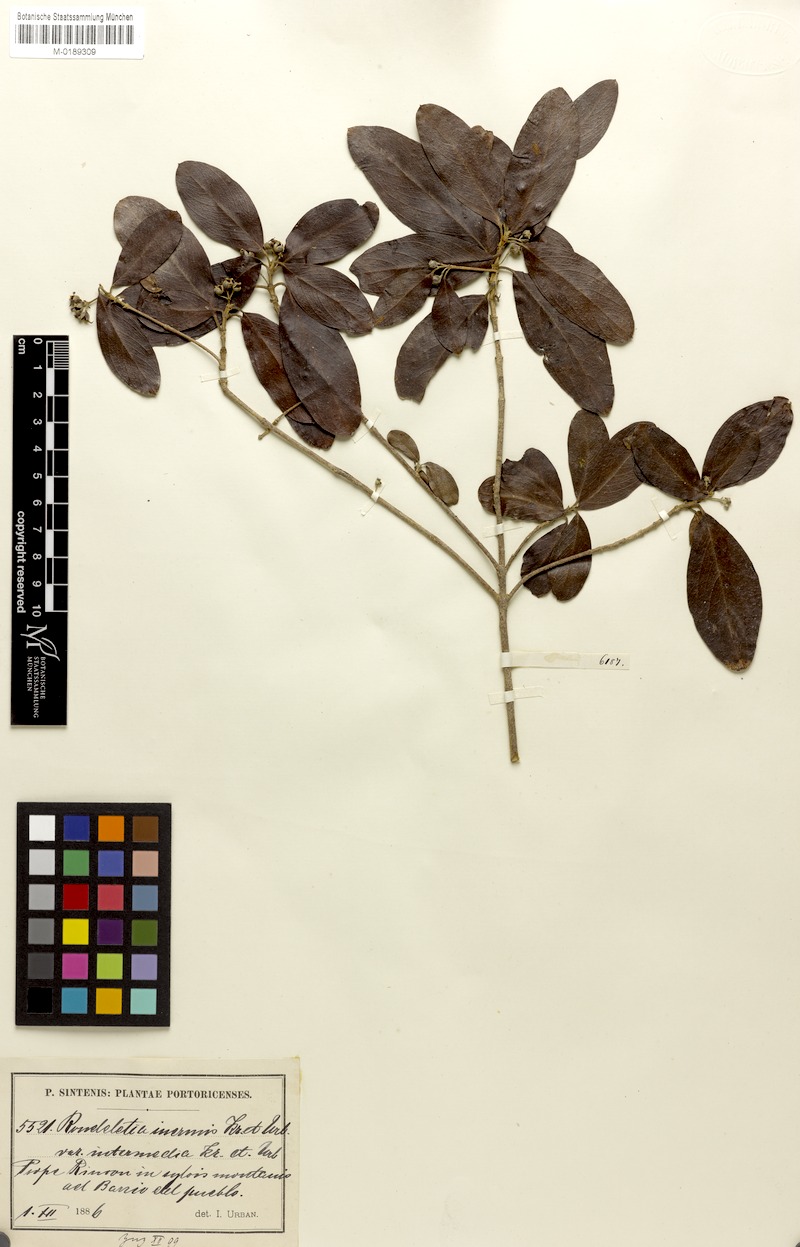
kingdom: Plantae
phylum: Tracheophyta
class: Magnoliopsida
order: Gentianales
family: Rubiaceae
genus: Rondeletia
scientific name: Rondeletia inermis
